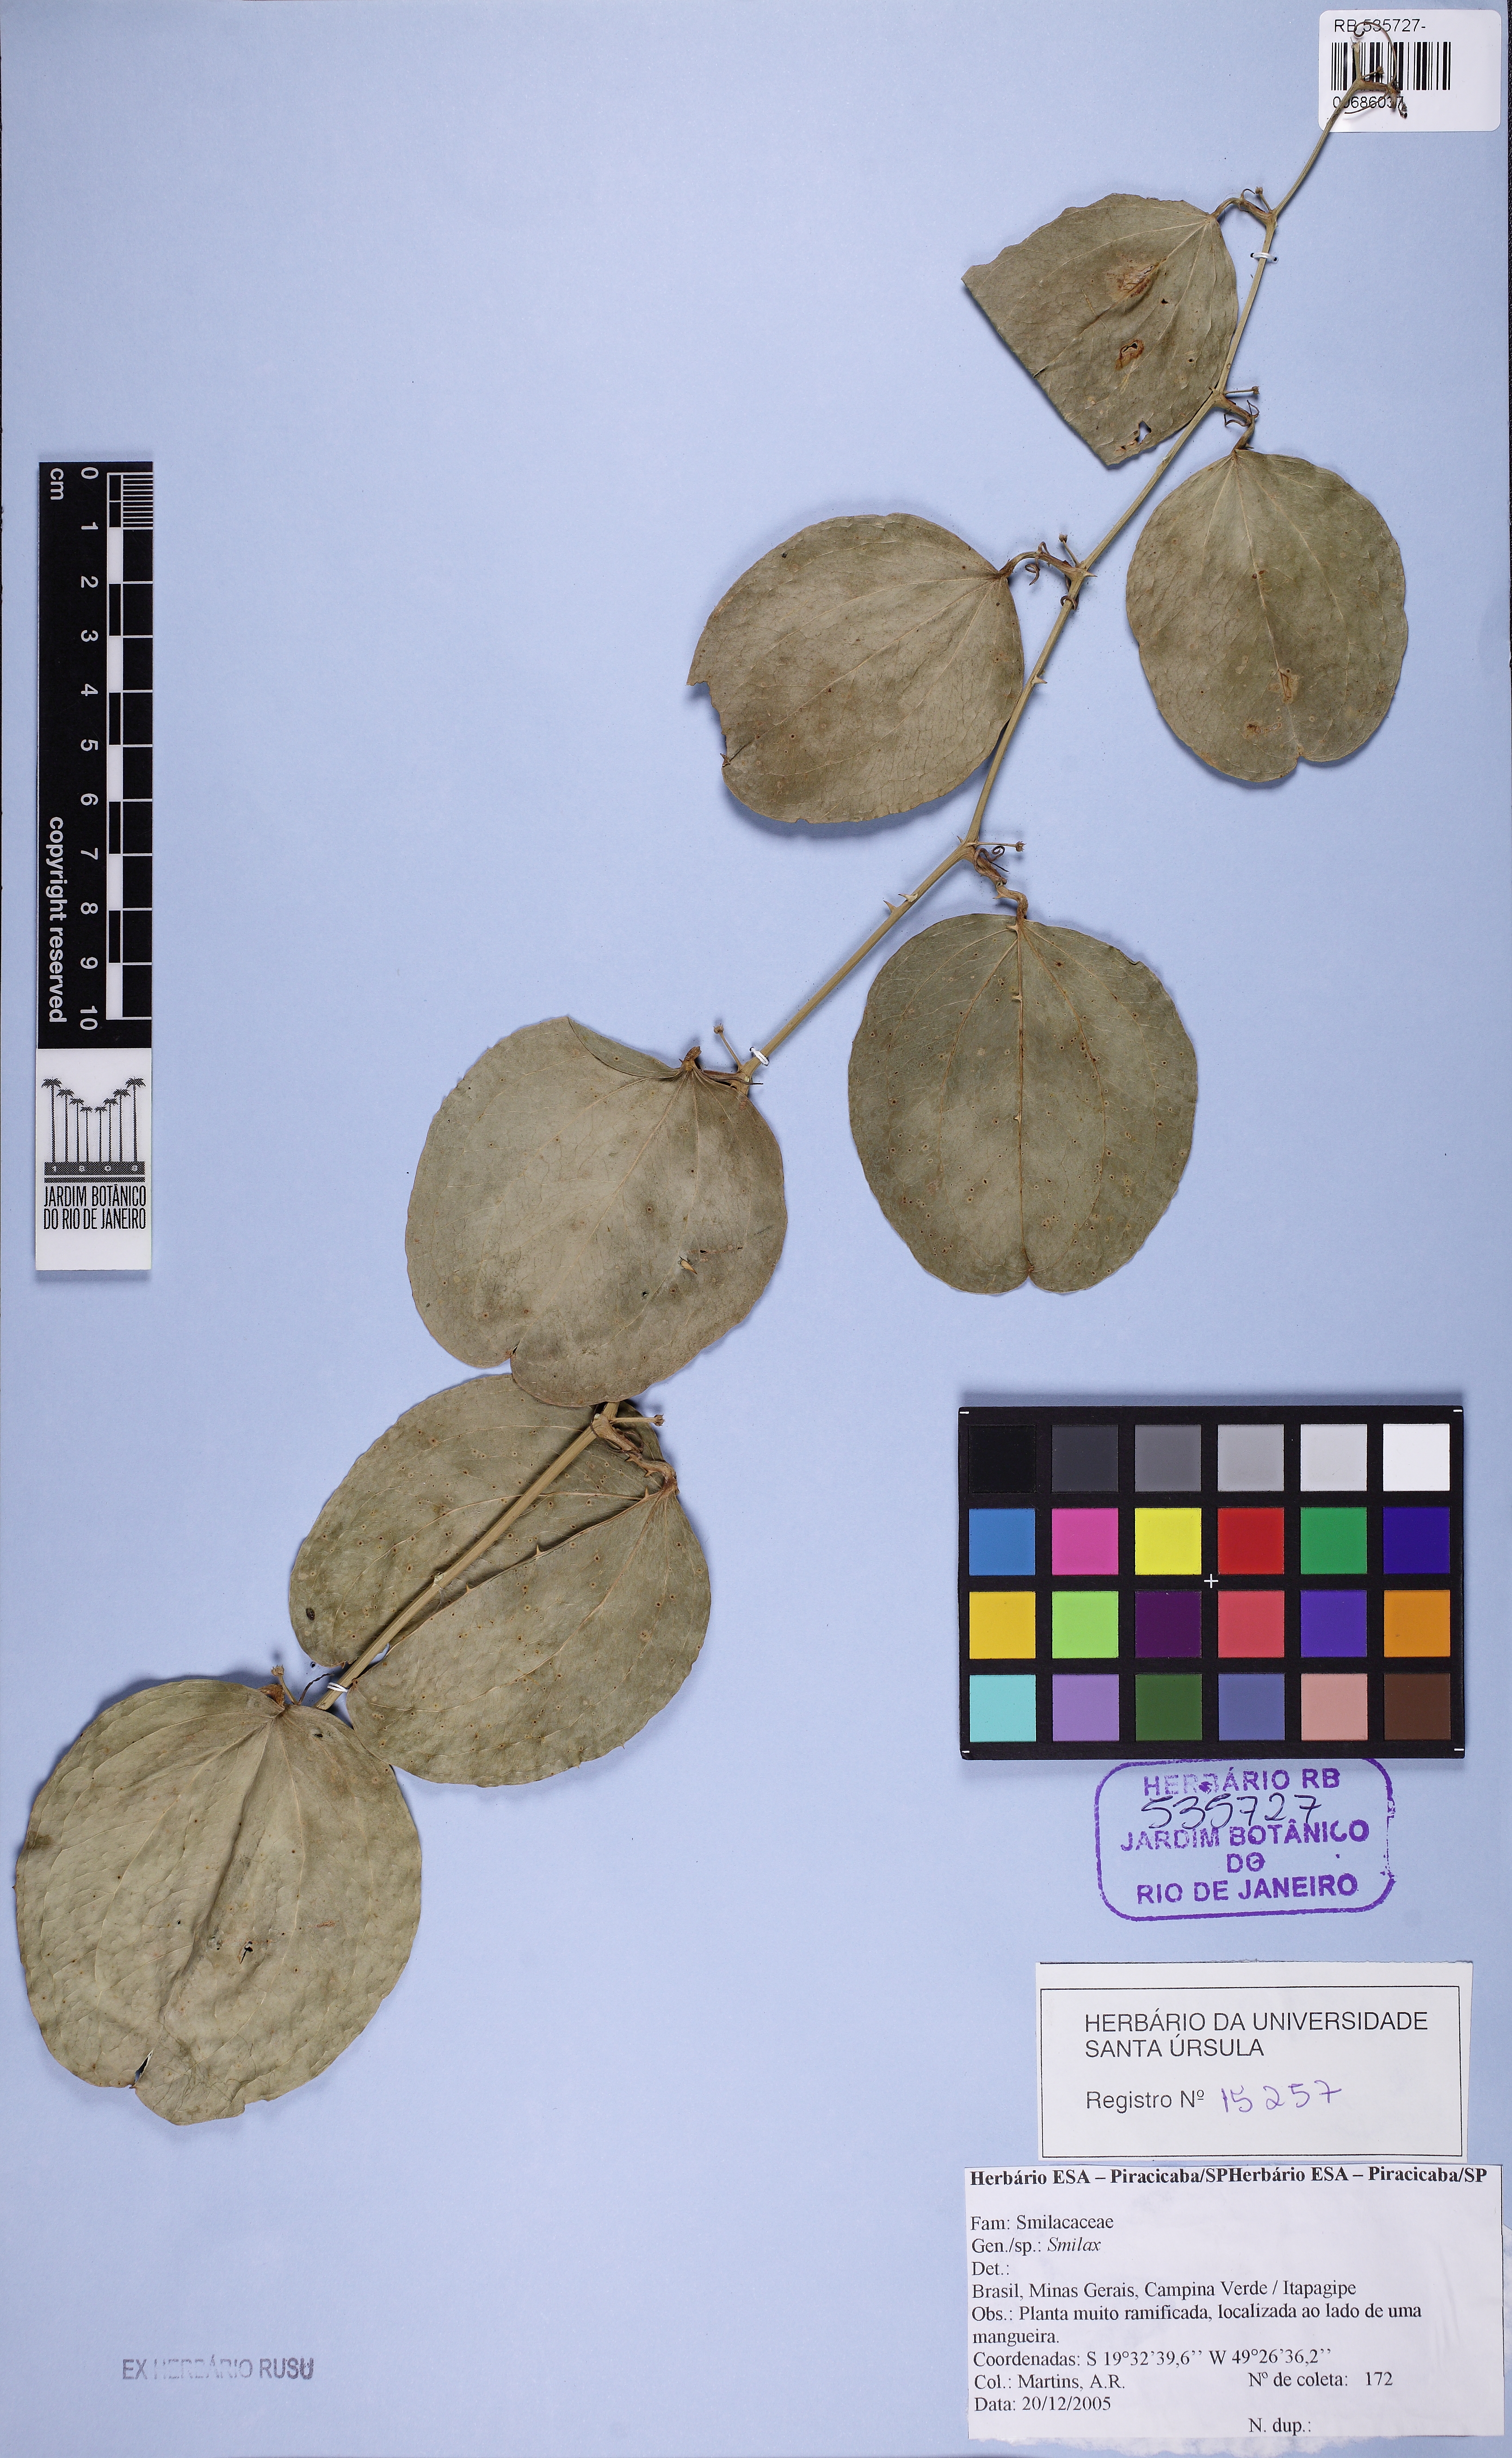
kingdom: Plantae
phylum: Tracheophyta
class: Liliopsida
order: Liliales
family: Smilacaceae
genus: Smilax
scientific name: Smilax
